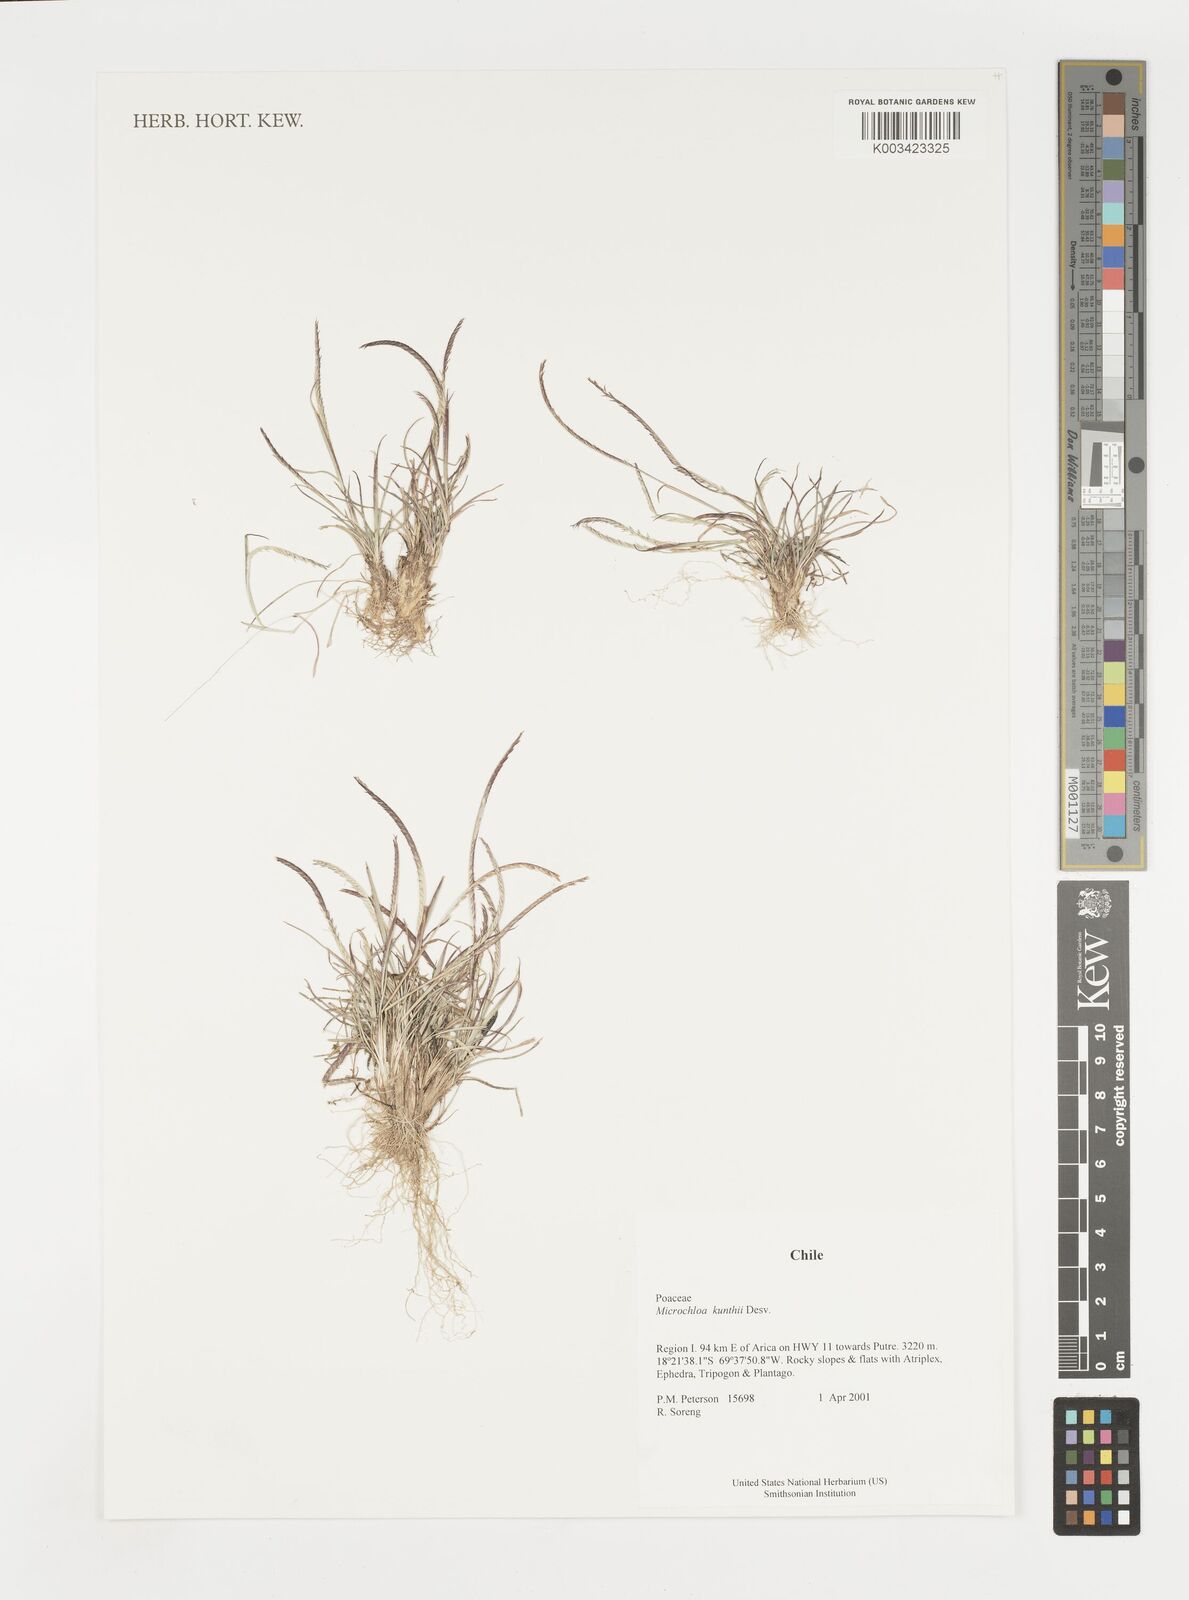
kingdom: Plantae
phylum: Tracheophyta
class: Liliopsida
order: Poales
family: Poaceae
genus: Microchloa
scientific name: Microchloa kunthii
